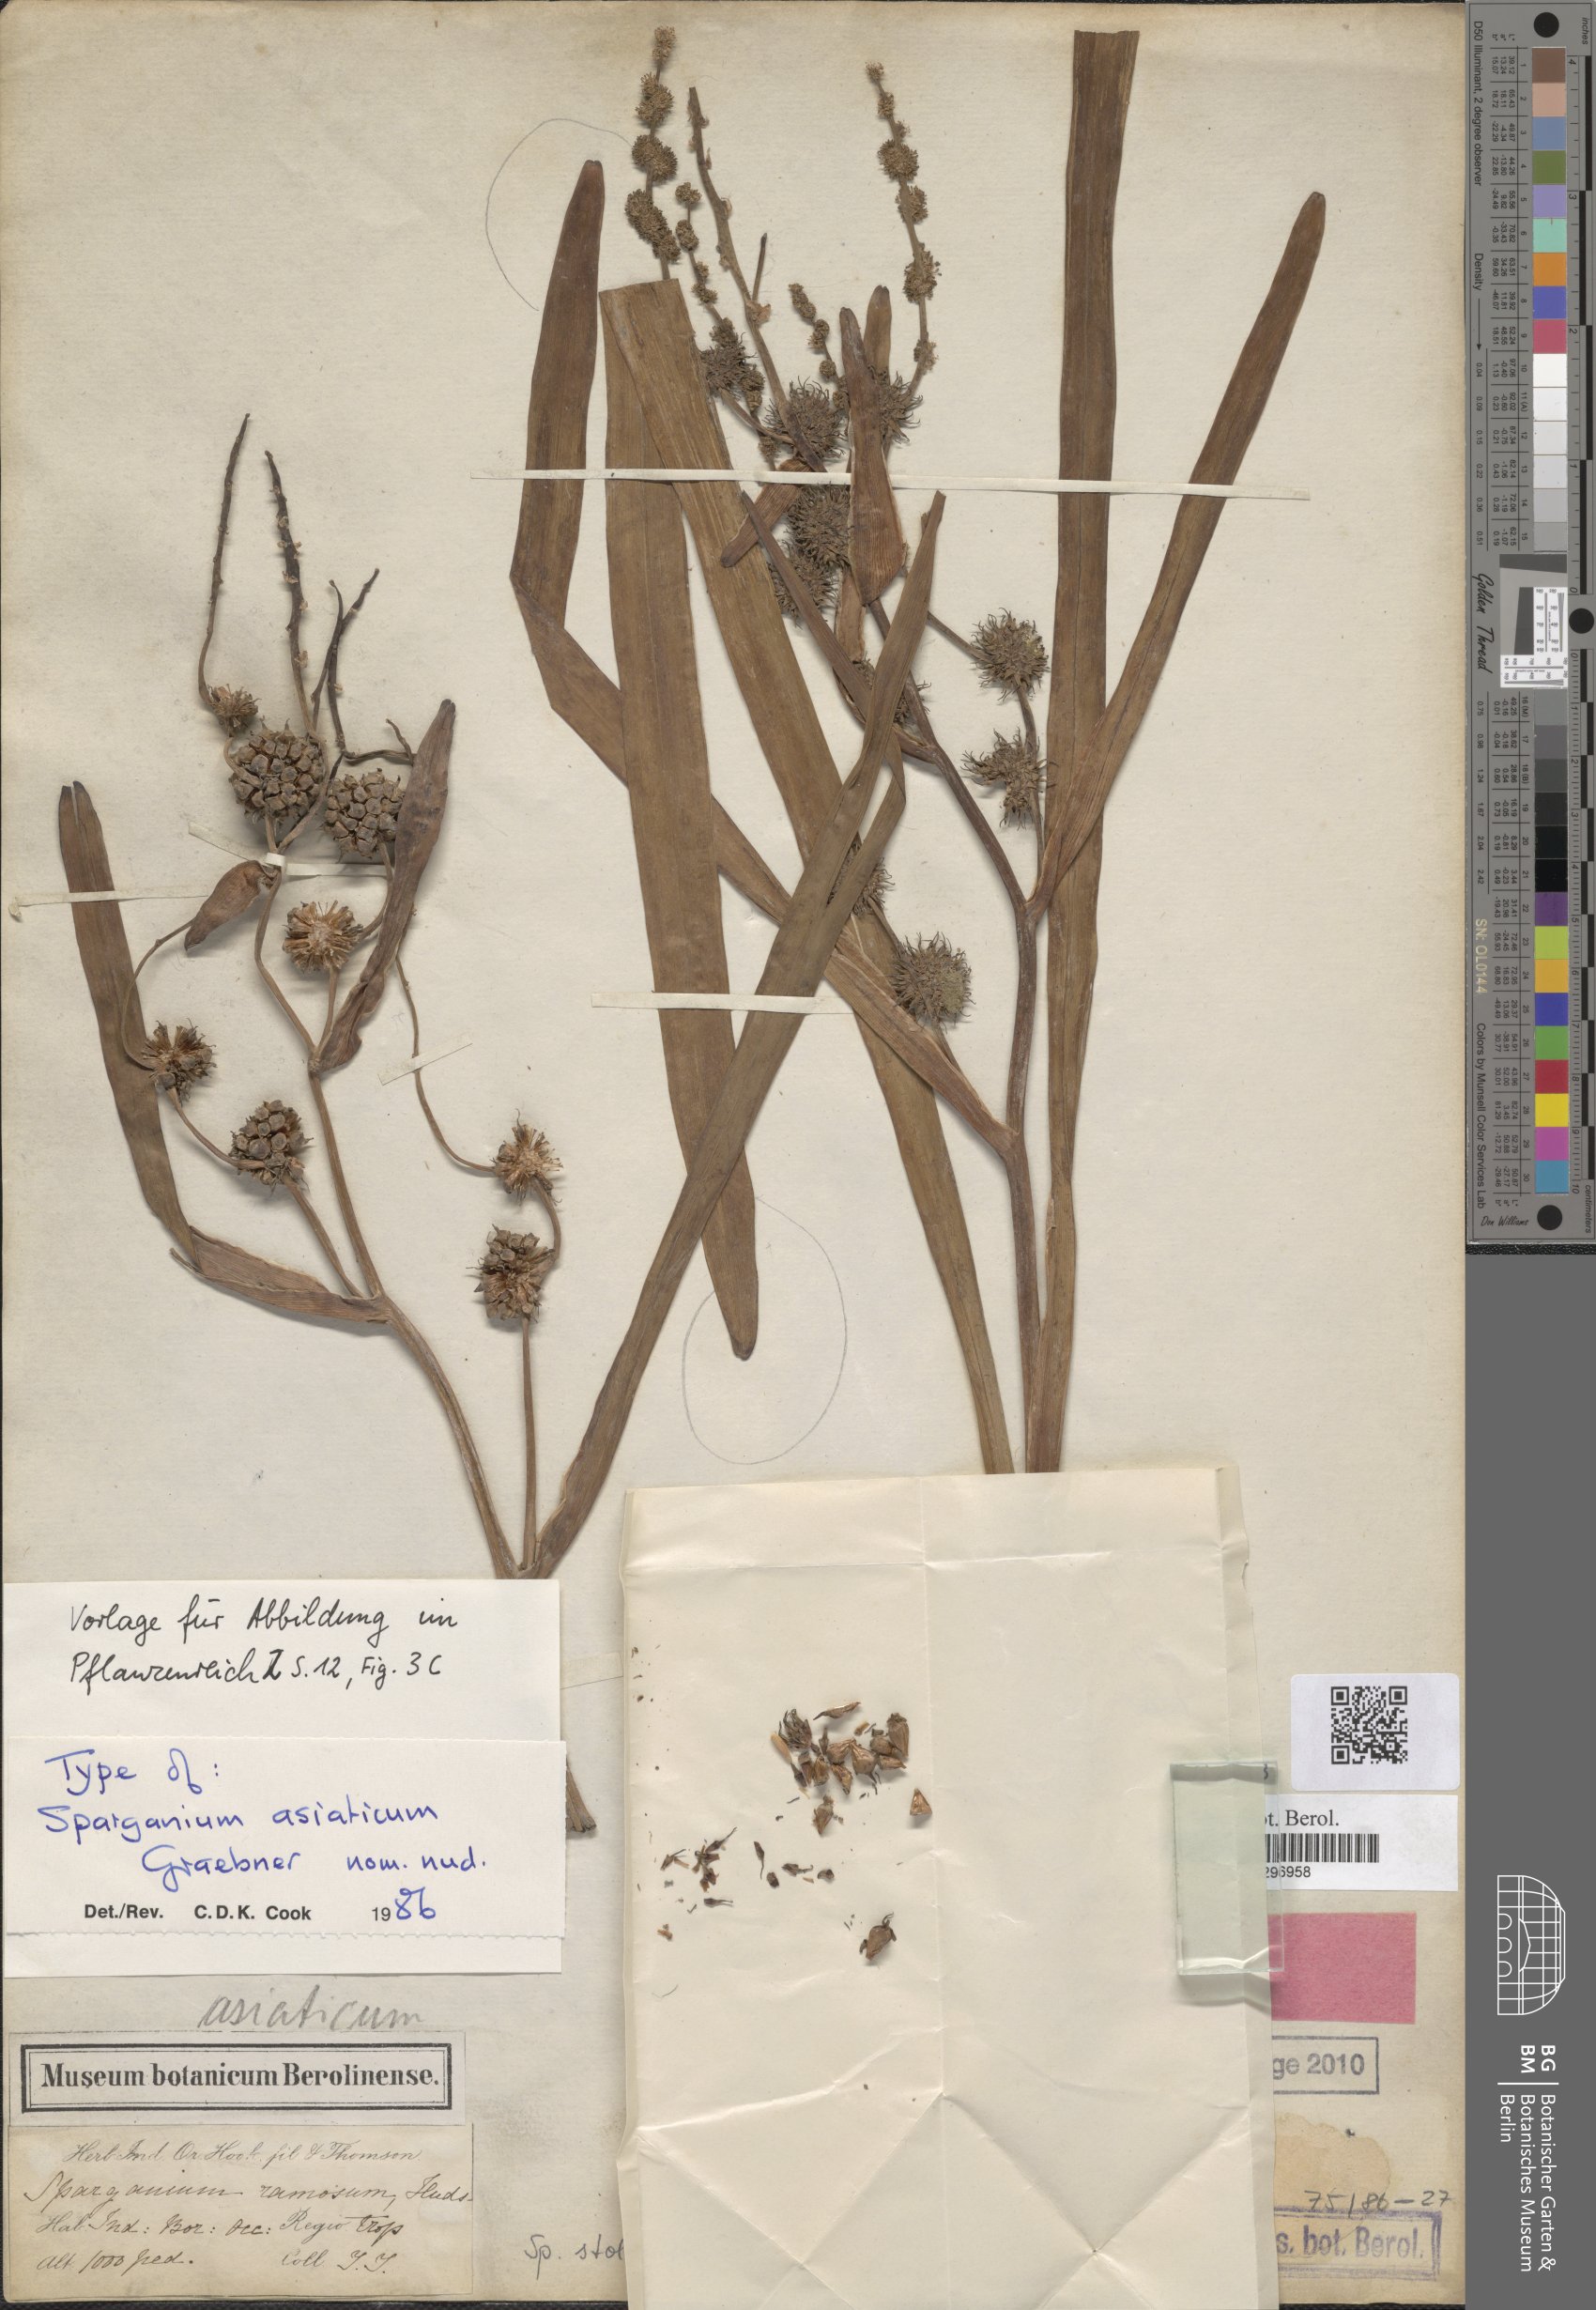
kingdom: Plantae
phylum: Tracheophyta
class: Liliopsida
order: Poales
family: Typhaceae
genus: Sparganium
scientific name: Sparganium stoloniferum
